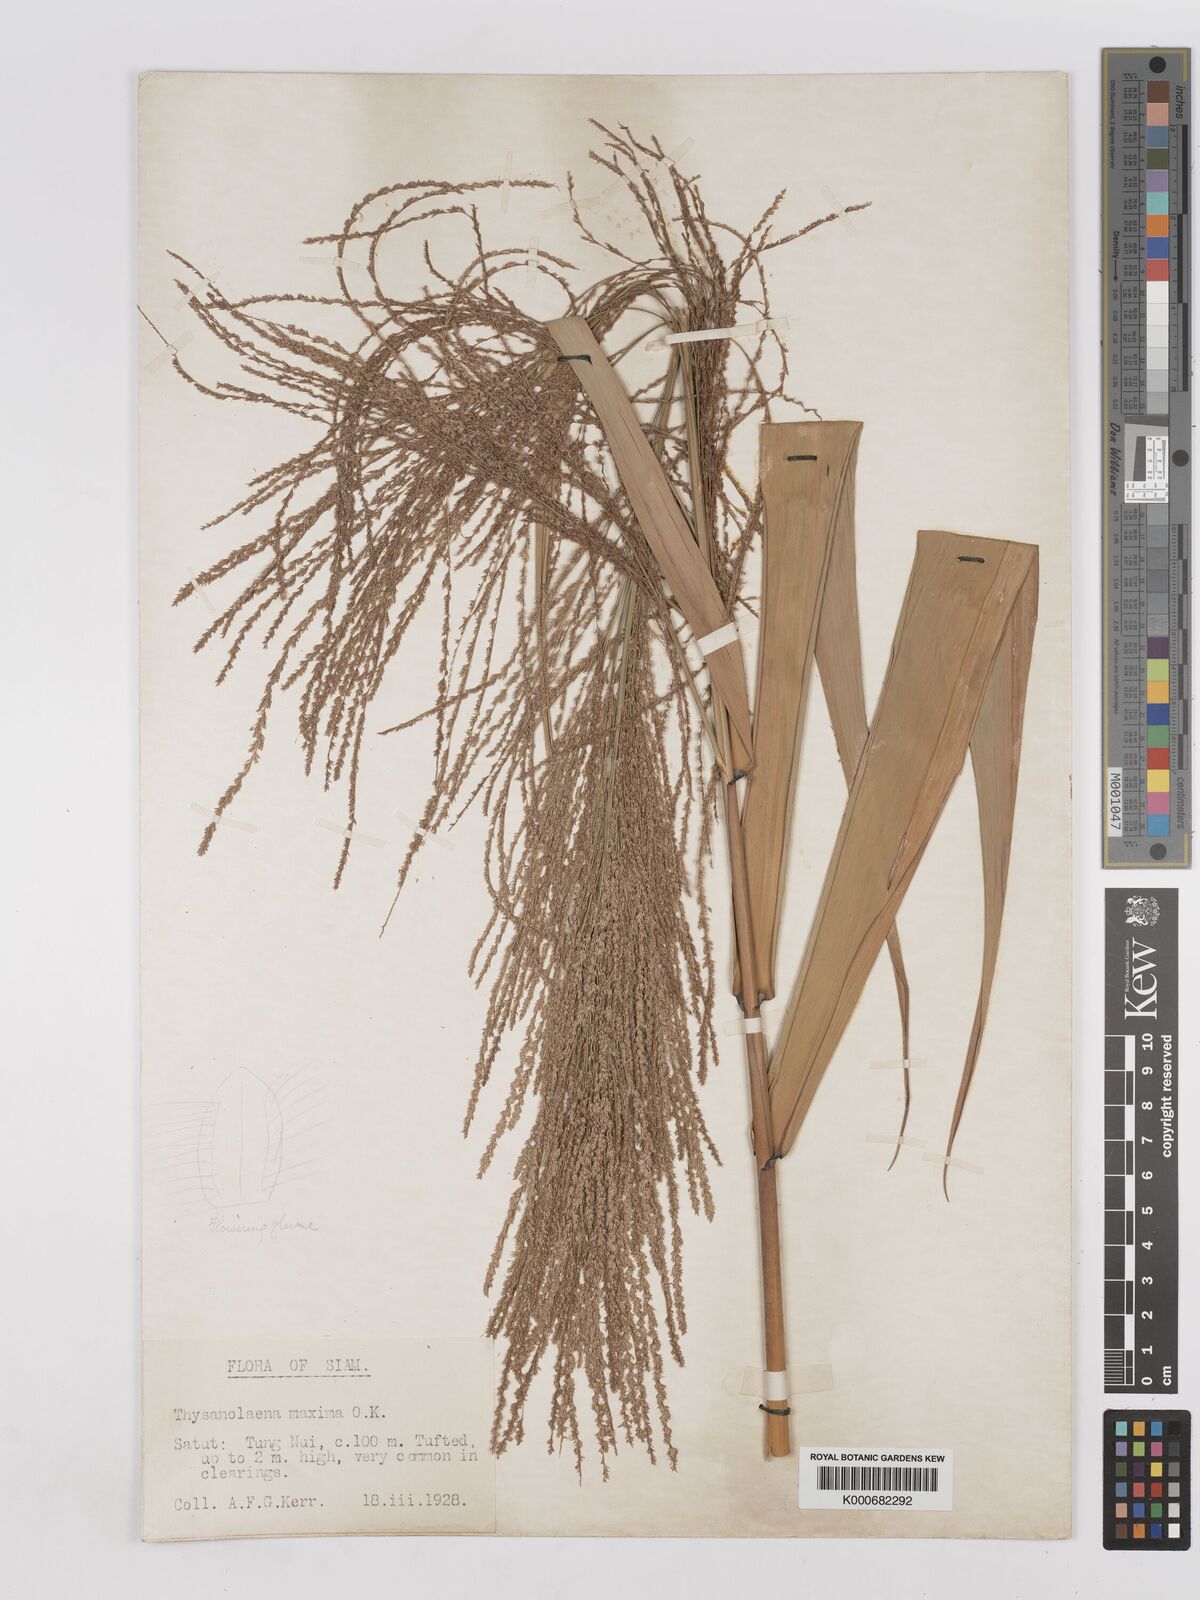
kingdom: Plantae
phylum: Tracheophyta
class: Liliopsida
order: Poales
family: Poaceae
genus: Thysanolaena
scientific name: Thysanolaena latifolia
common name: Tiger grass
